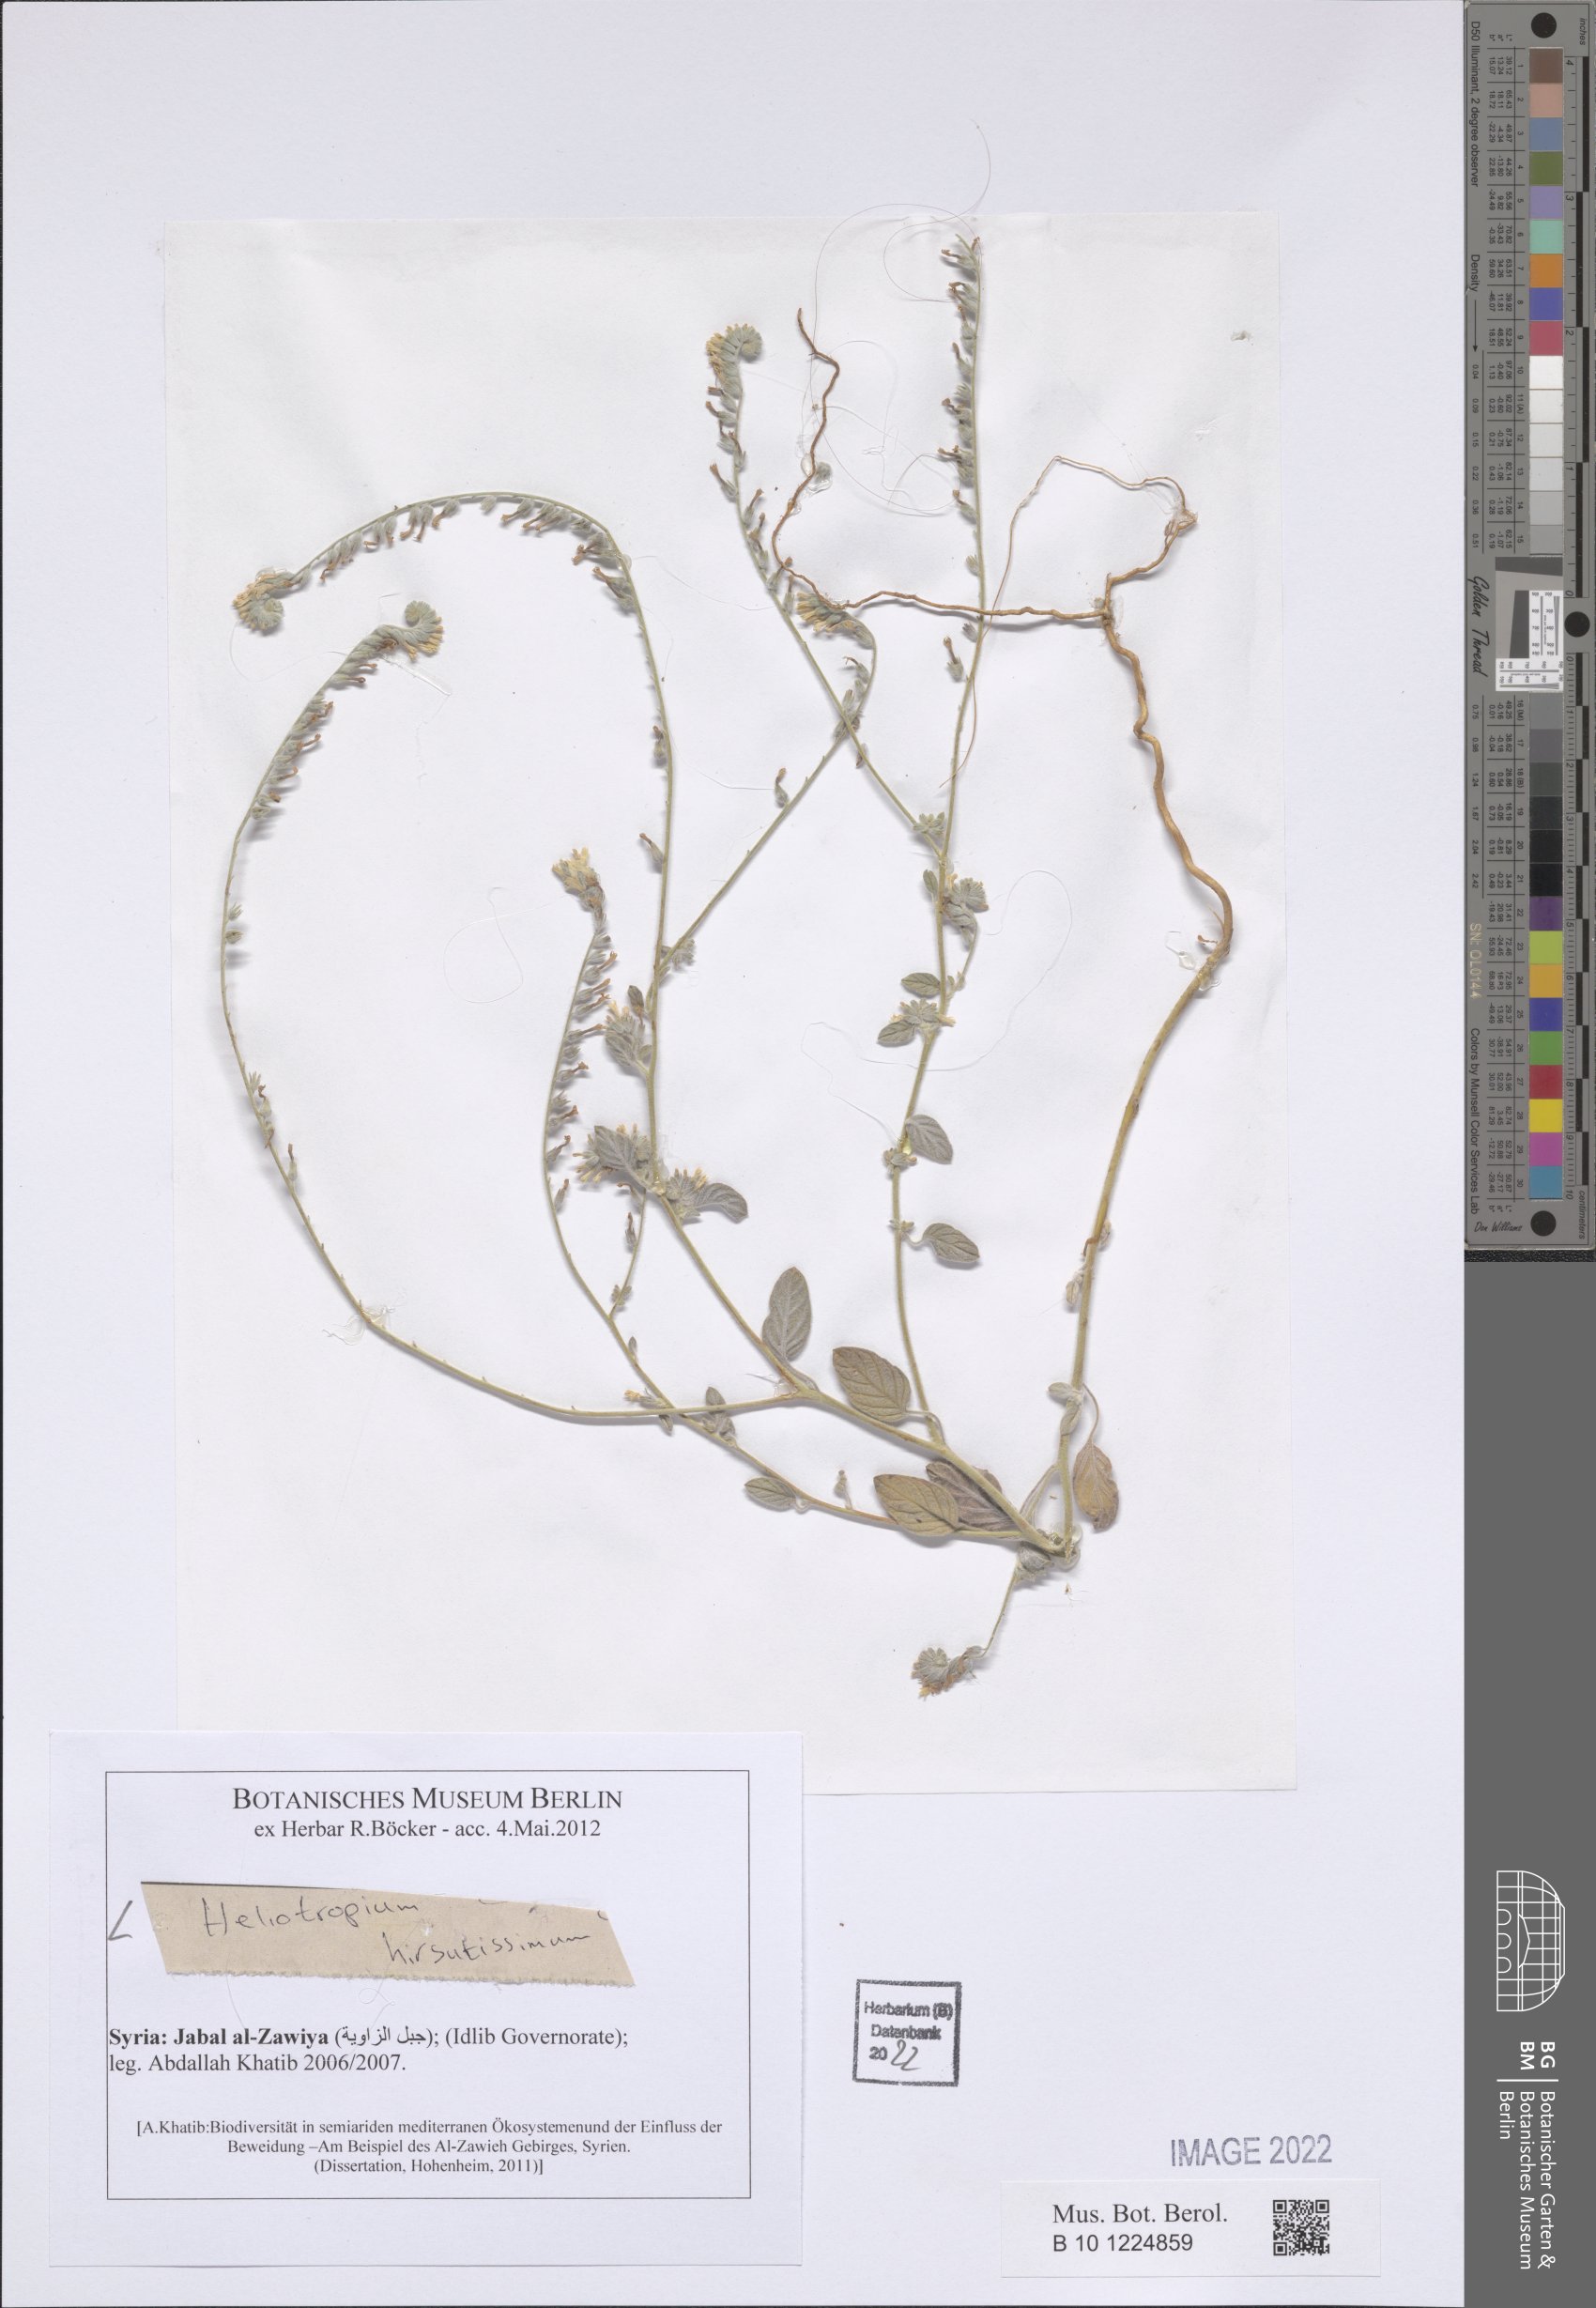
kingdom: Plantae
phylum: Tracheophyta
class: Magnoliopsida
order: Boraginales
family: Heliotropiaceae
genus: Heliotropium
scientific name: Heliotropium hirsutissimum
